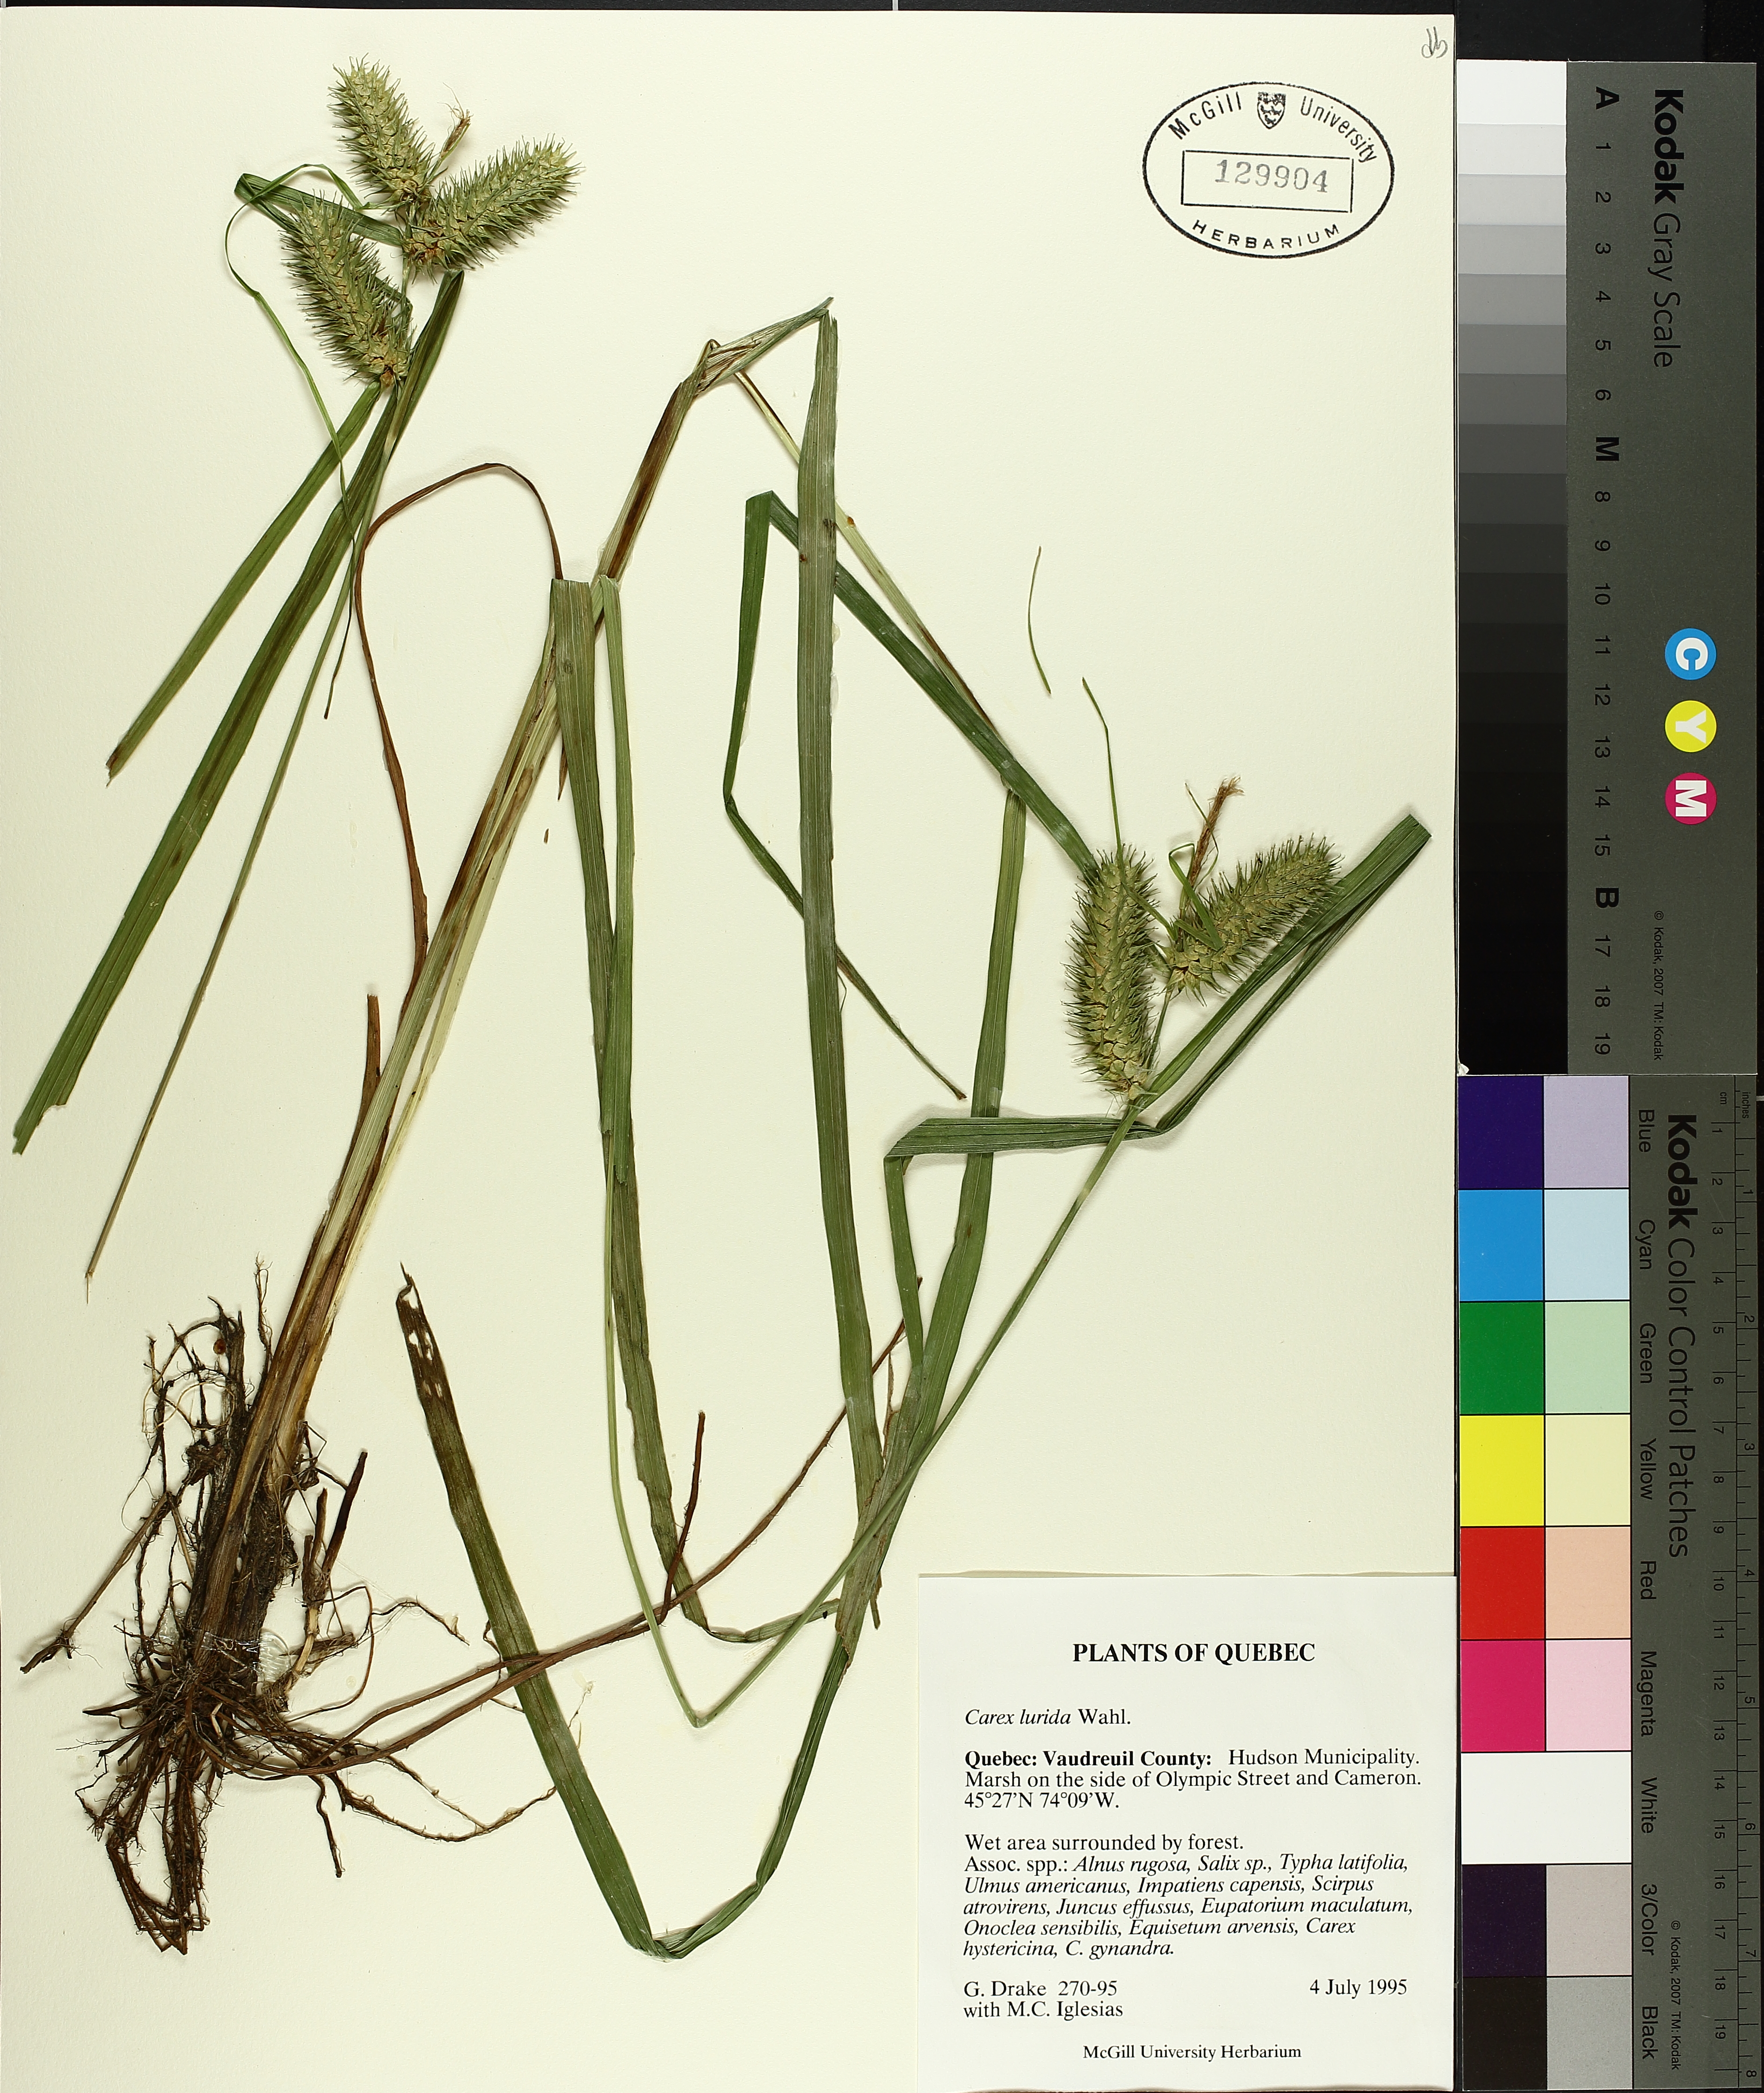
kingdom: Plantae
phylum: Tracheophyta
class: Liliopsida
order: Poales
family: Cyperaceae
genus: Carex
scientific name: Carex lurida
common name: Sallow sedge
